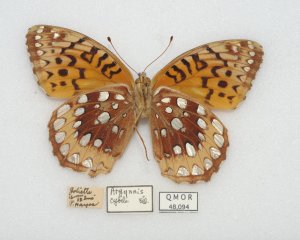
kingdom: Animalia
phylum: Arthropoda
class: Insecta
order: Lepidoptera
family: Nymphalidae
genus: Speyeria
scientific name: Speyeria cybele
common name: Great Spangled Fritillary
